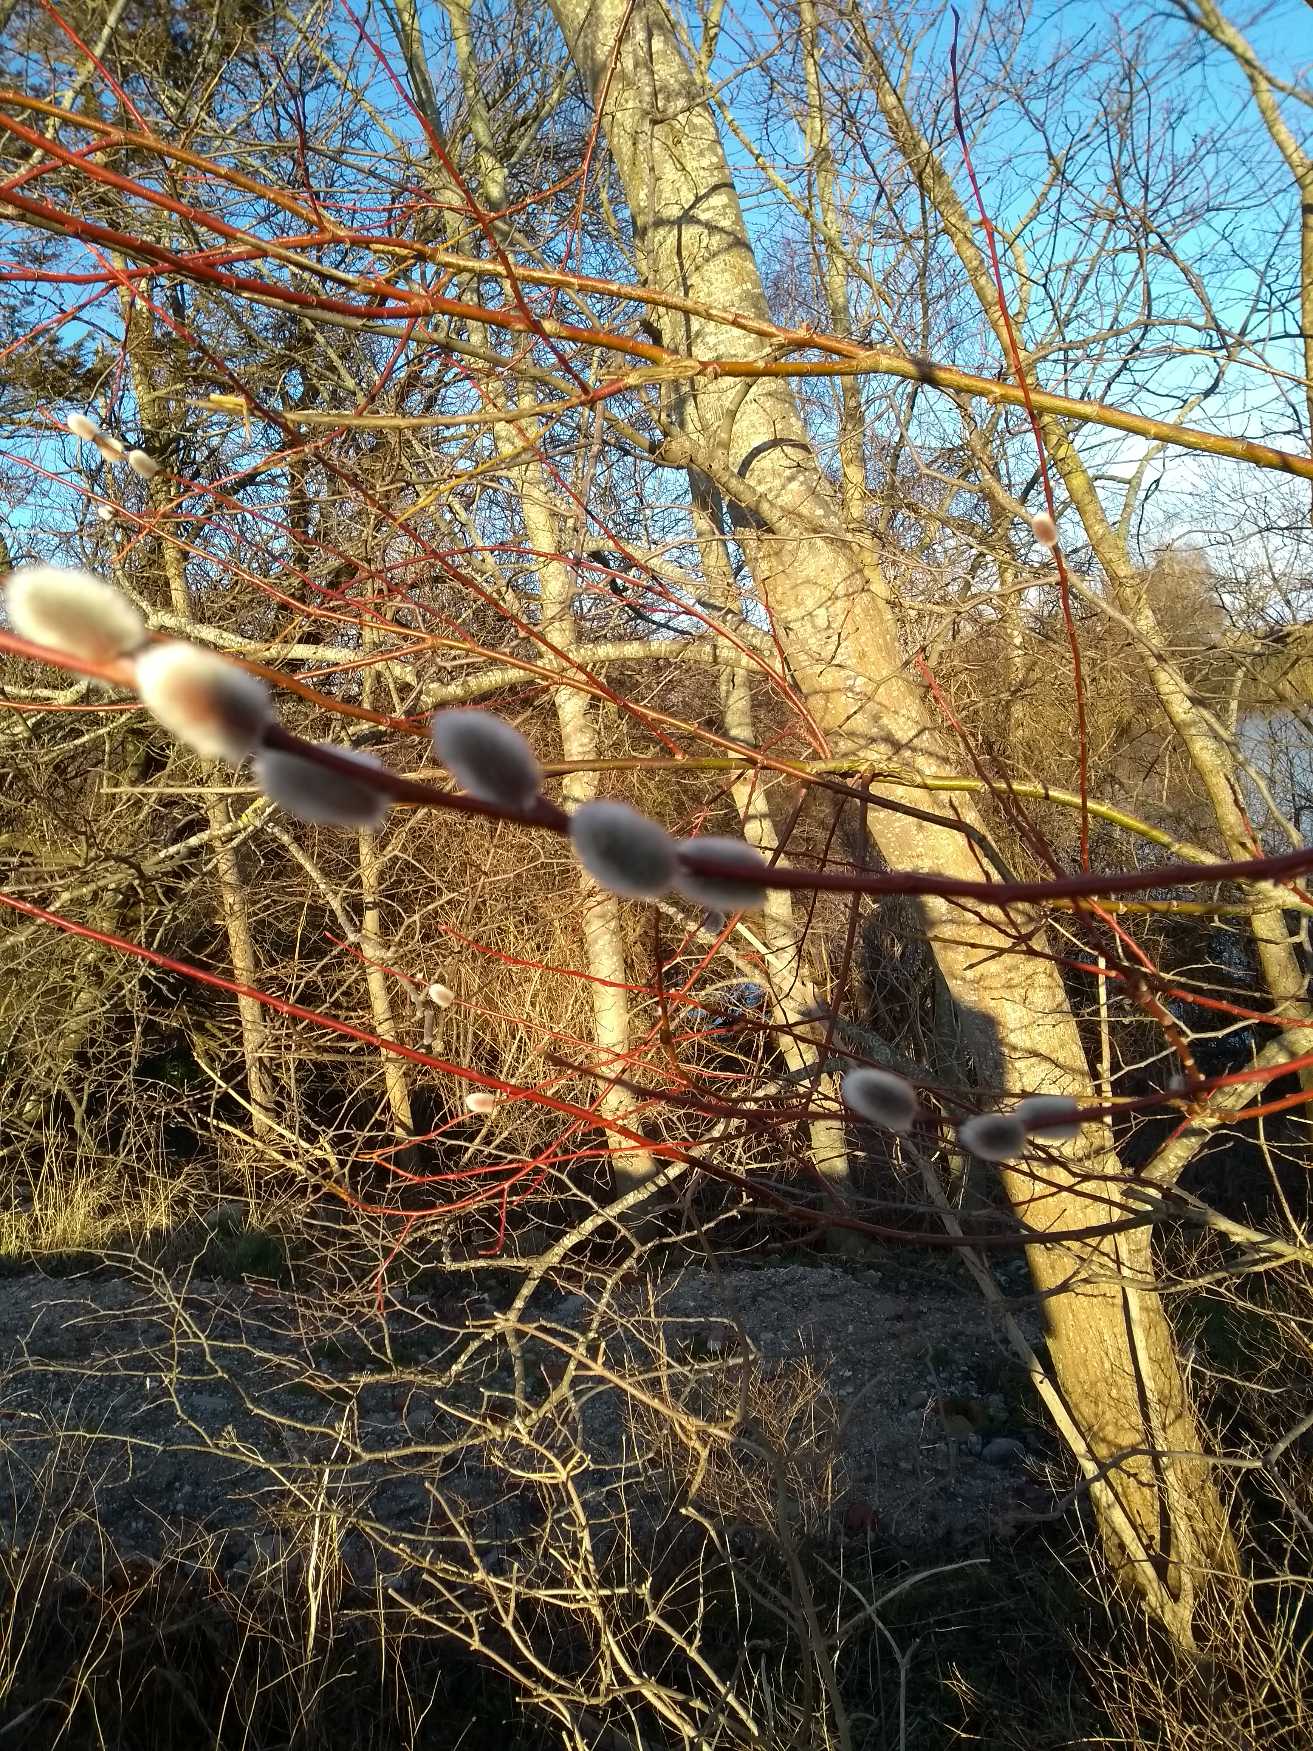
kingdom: Plantae
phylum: Tracheophyta
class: Magnoliopsida
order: Malpighiales
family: Salicaceae
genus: Salix
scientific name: Salix
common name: Pileslægten
